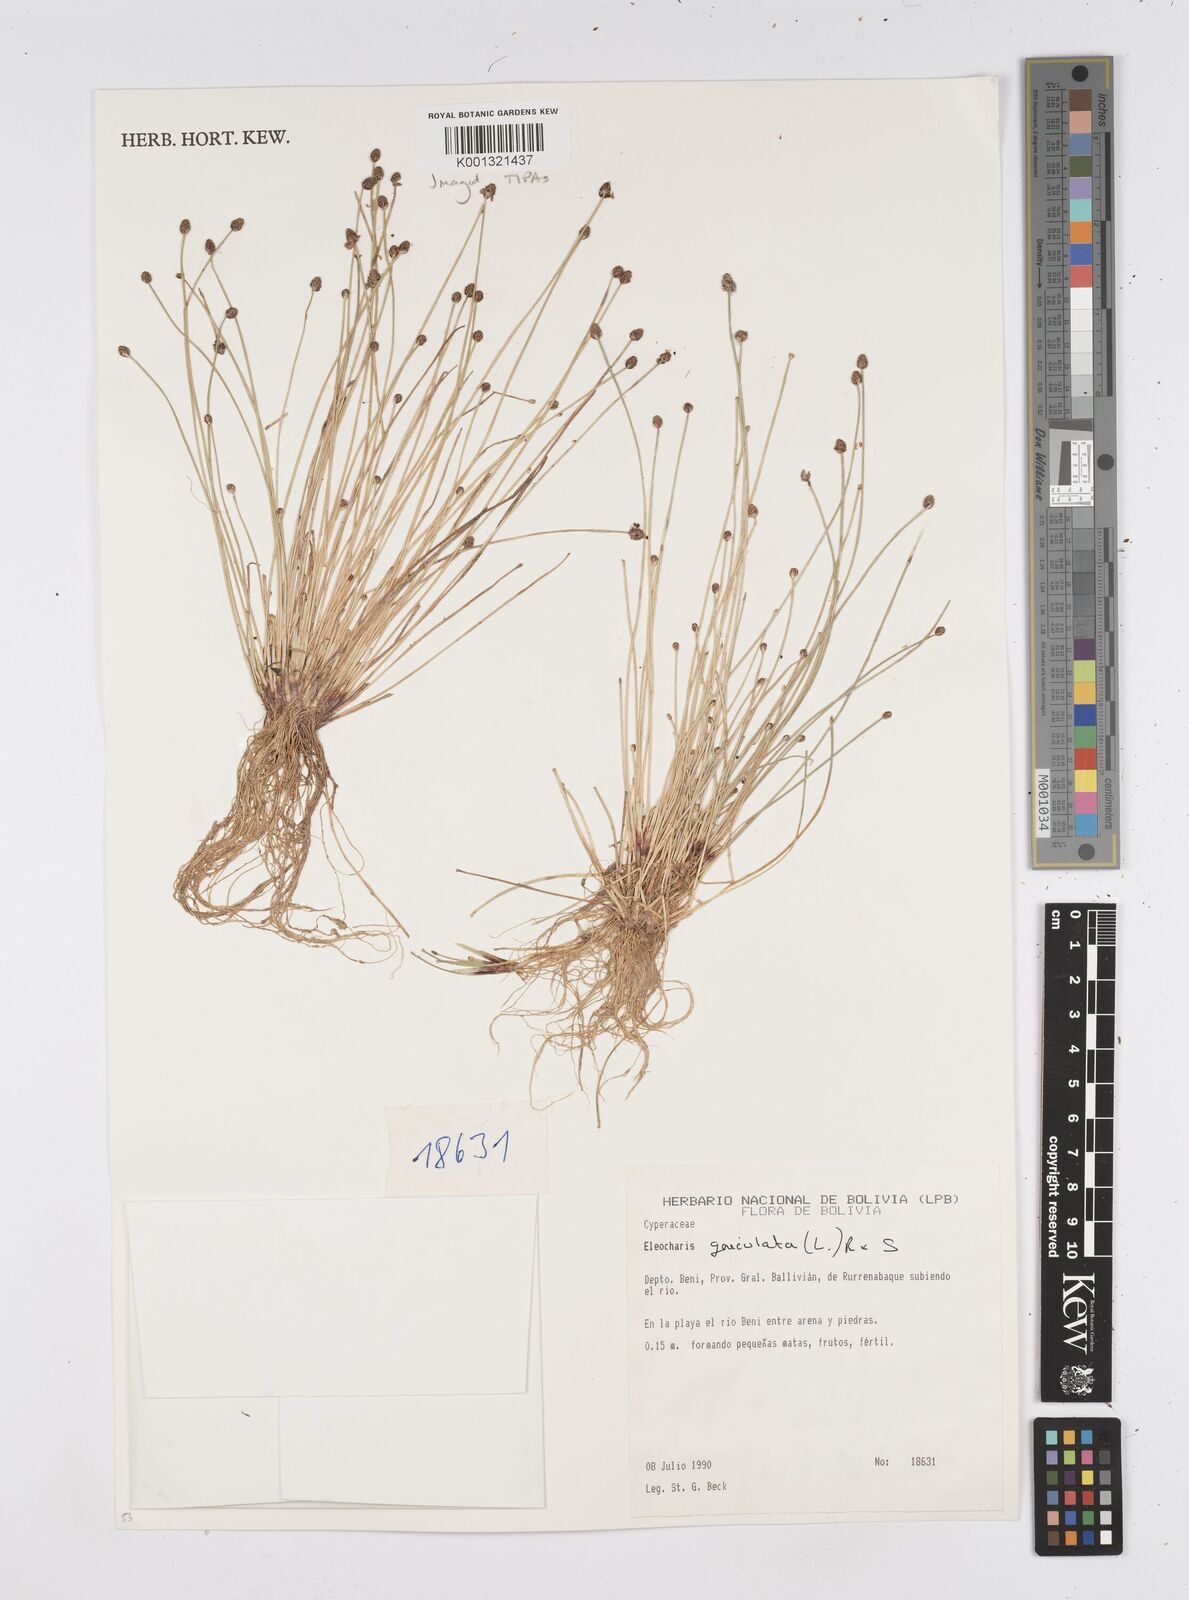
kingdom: Plantae
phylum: Tracheophyta
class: Liliopsida
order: Poales
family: Cyperaceae
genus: Eleocharis
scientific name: Eleocharis geniculata
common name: Canada spikesedge
